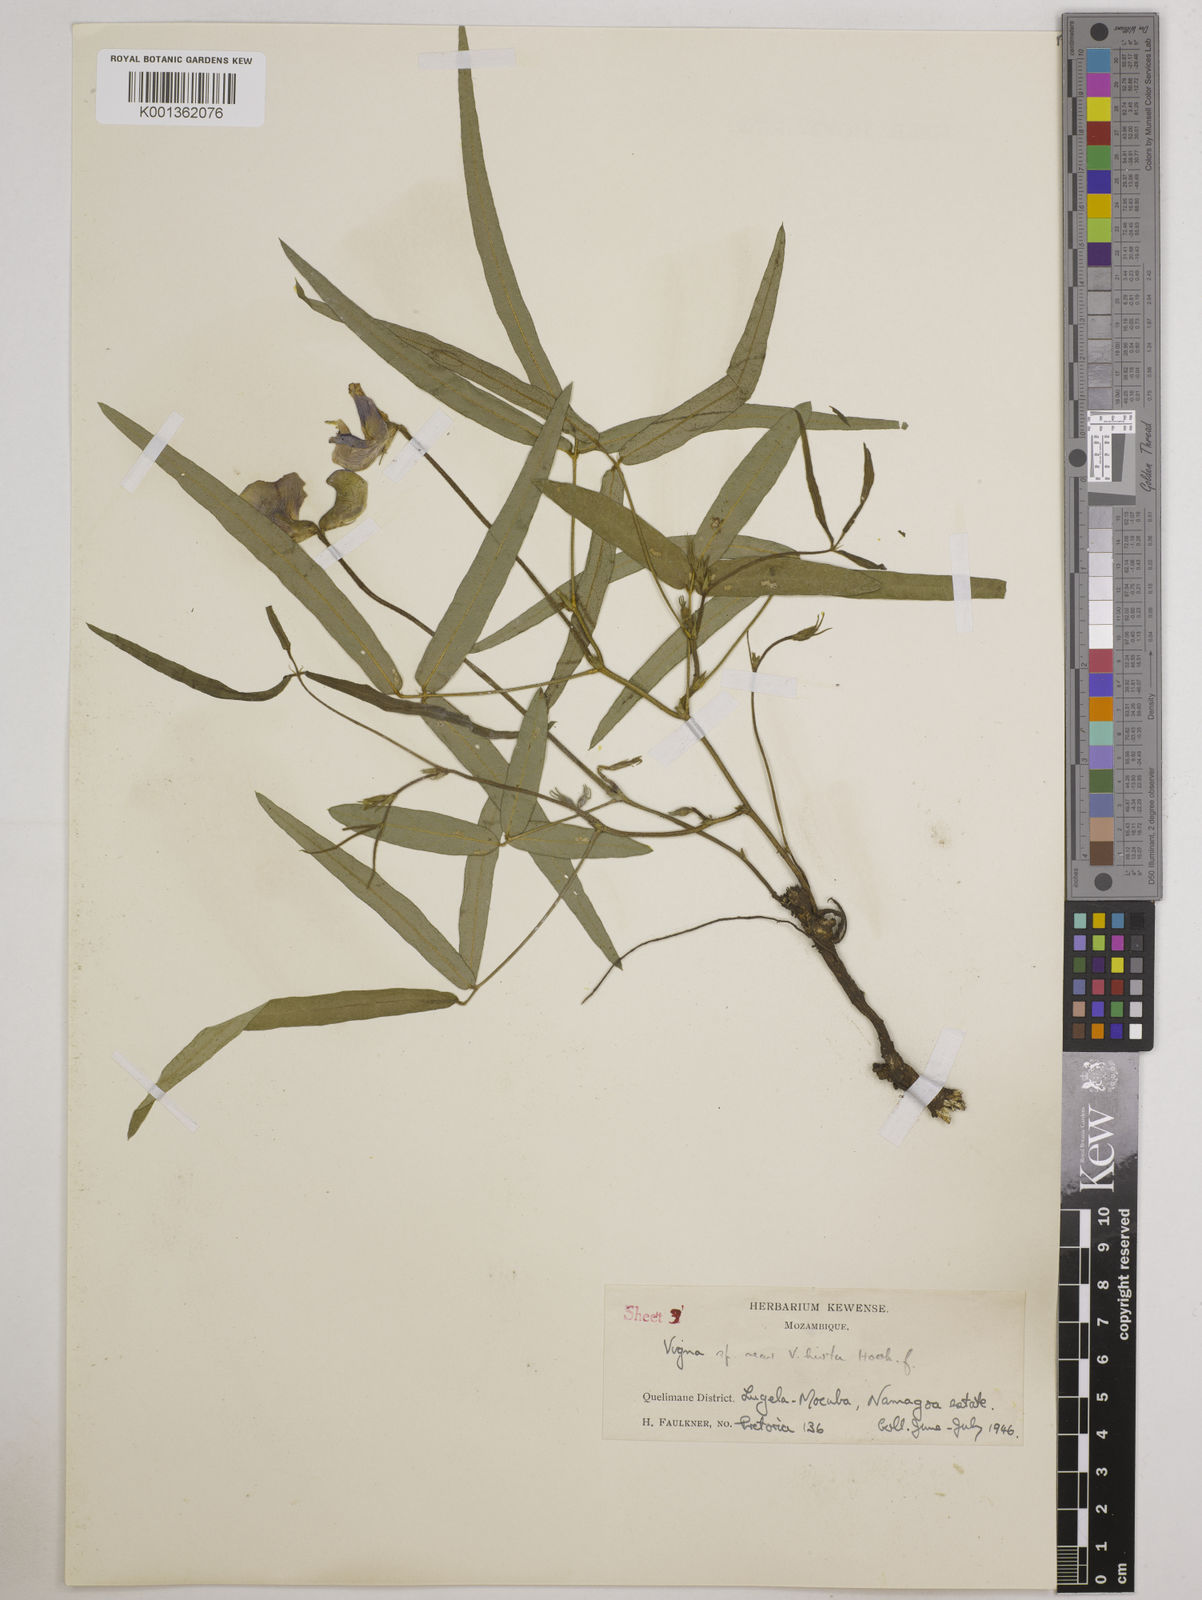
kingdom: Plantae
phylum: Tracheophyta
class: Magnoliopsida
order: Fabales
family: Fabaceae
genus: Vigna
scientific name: Vigna vexillata
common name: Zombi pea
